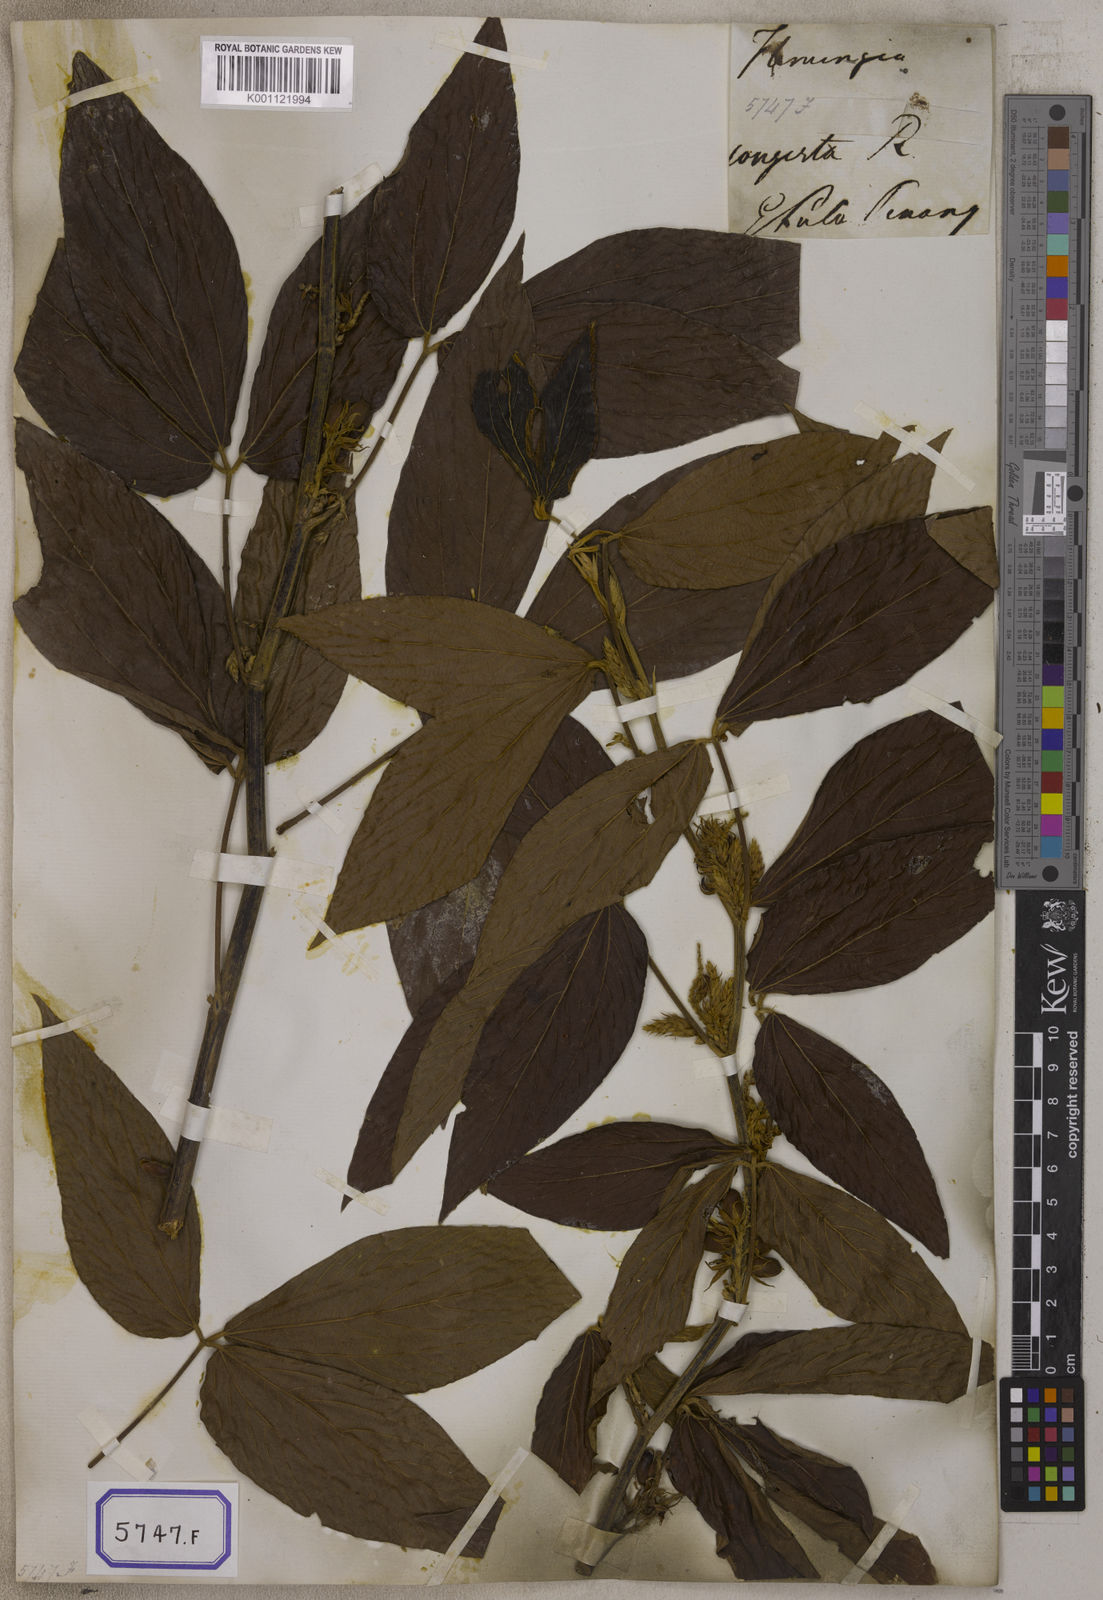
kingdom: Plantae
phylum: Tracheophyta
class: Magnoliopsida
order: Fabales
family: Fabaceae
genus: Flemingia
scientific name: Flemingia
